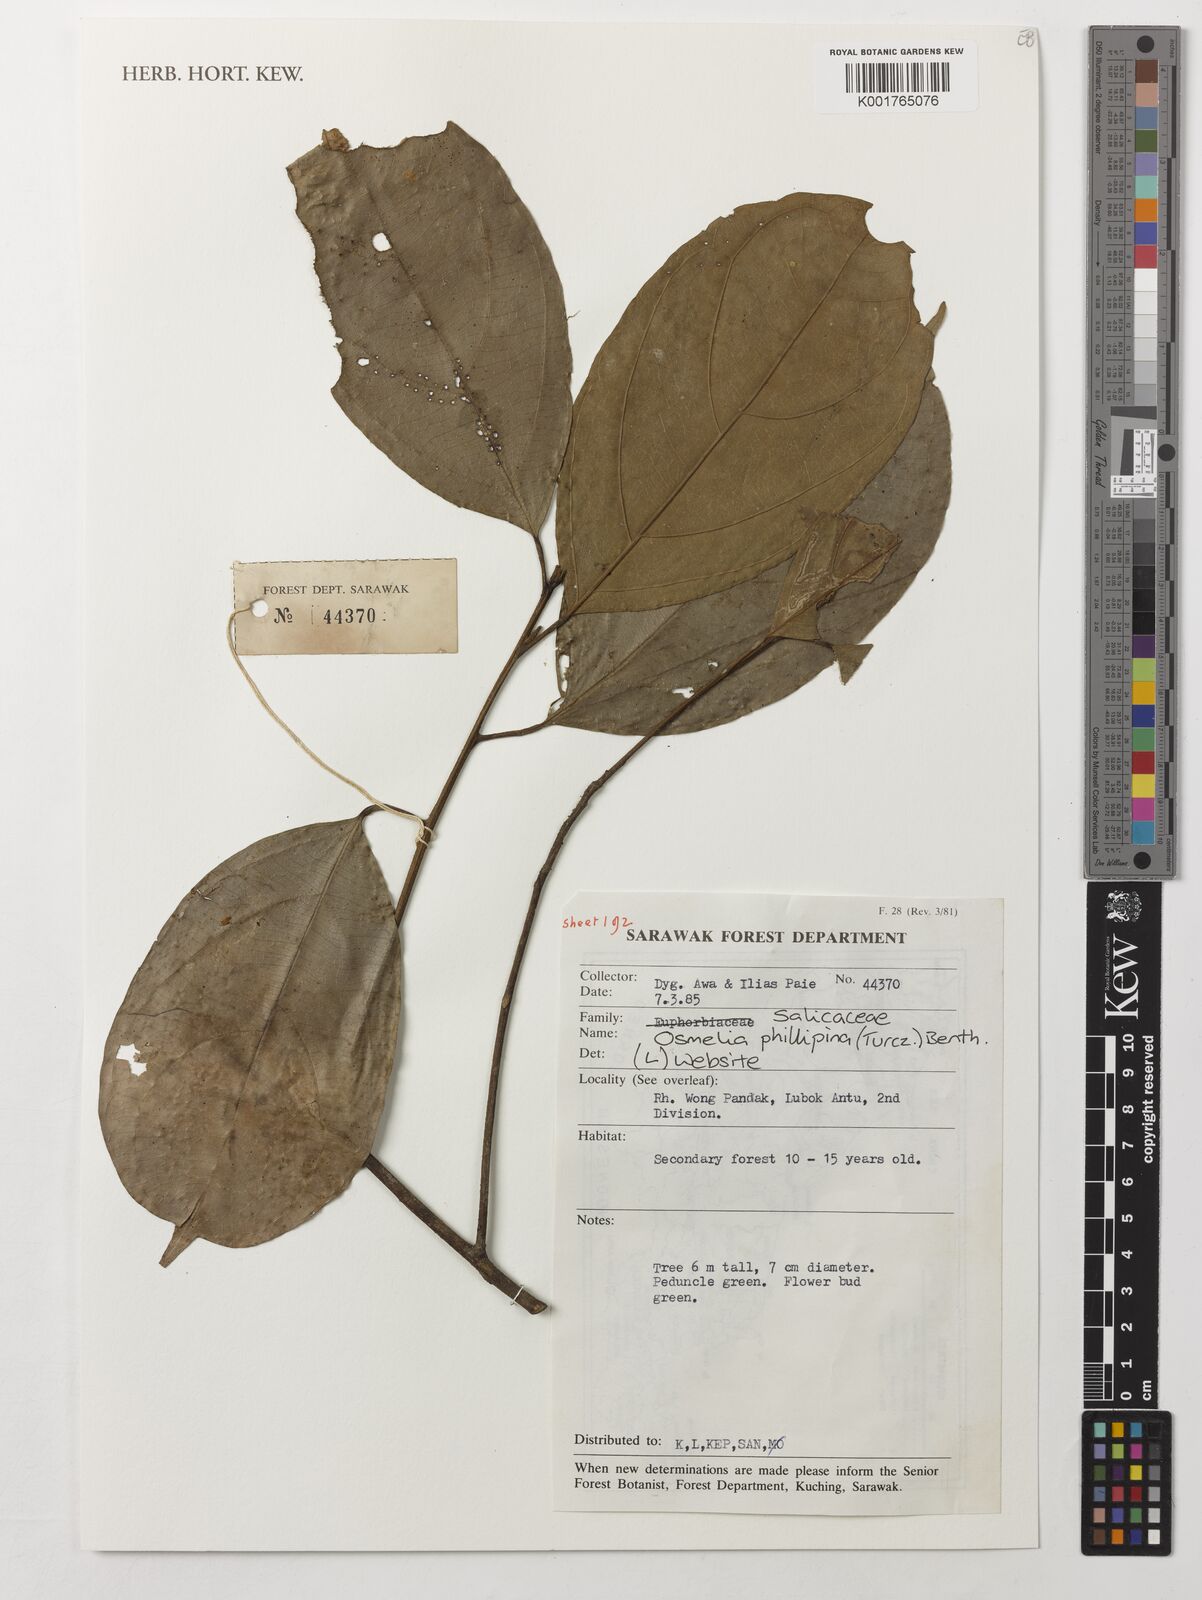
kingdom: Plantae
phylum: Tracheophyta
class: Magnoliopsida
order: Malpighiales
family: Salicaceae
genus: Osmelia
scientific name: Osmelia philippina
